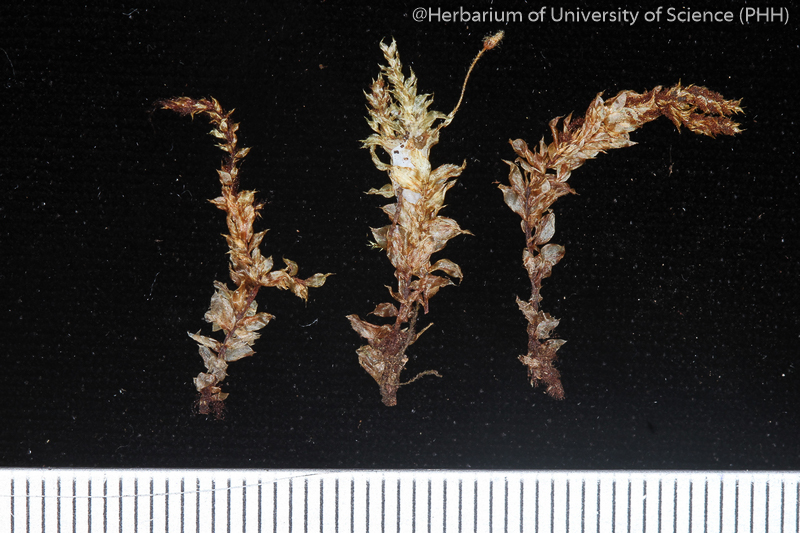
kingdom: Plantae
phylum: Bryophyta
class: Bryopsida
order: Hookeriales
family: Daltoniaceae
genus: Calyptrochaeta
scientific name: Calyptrochaeta ramosa
